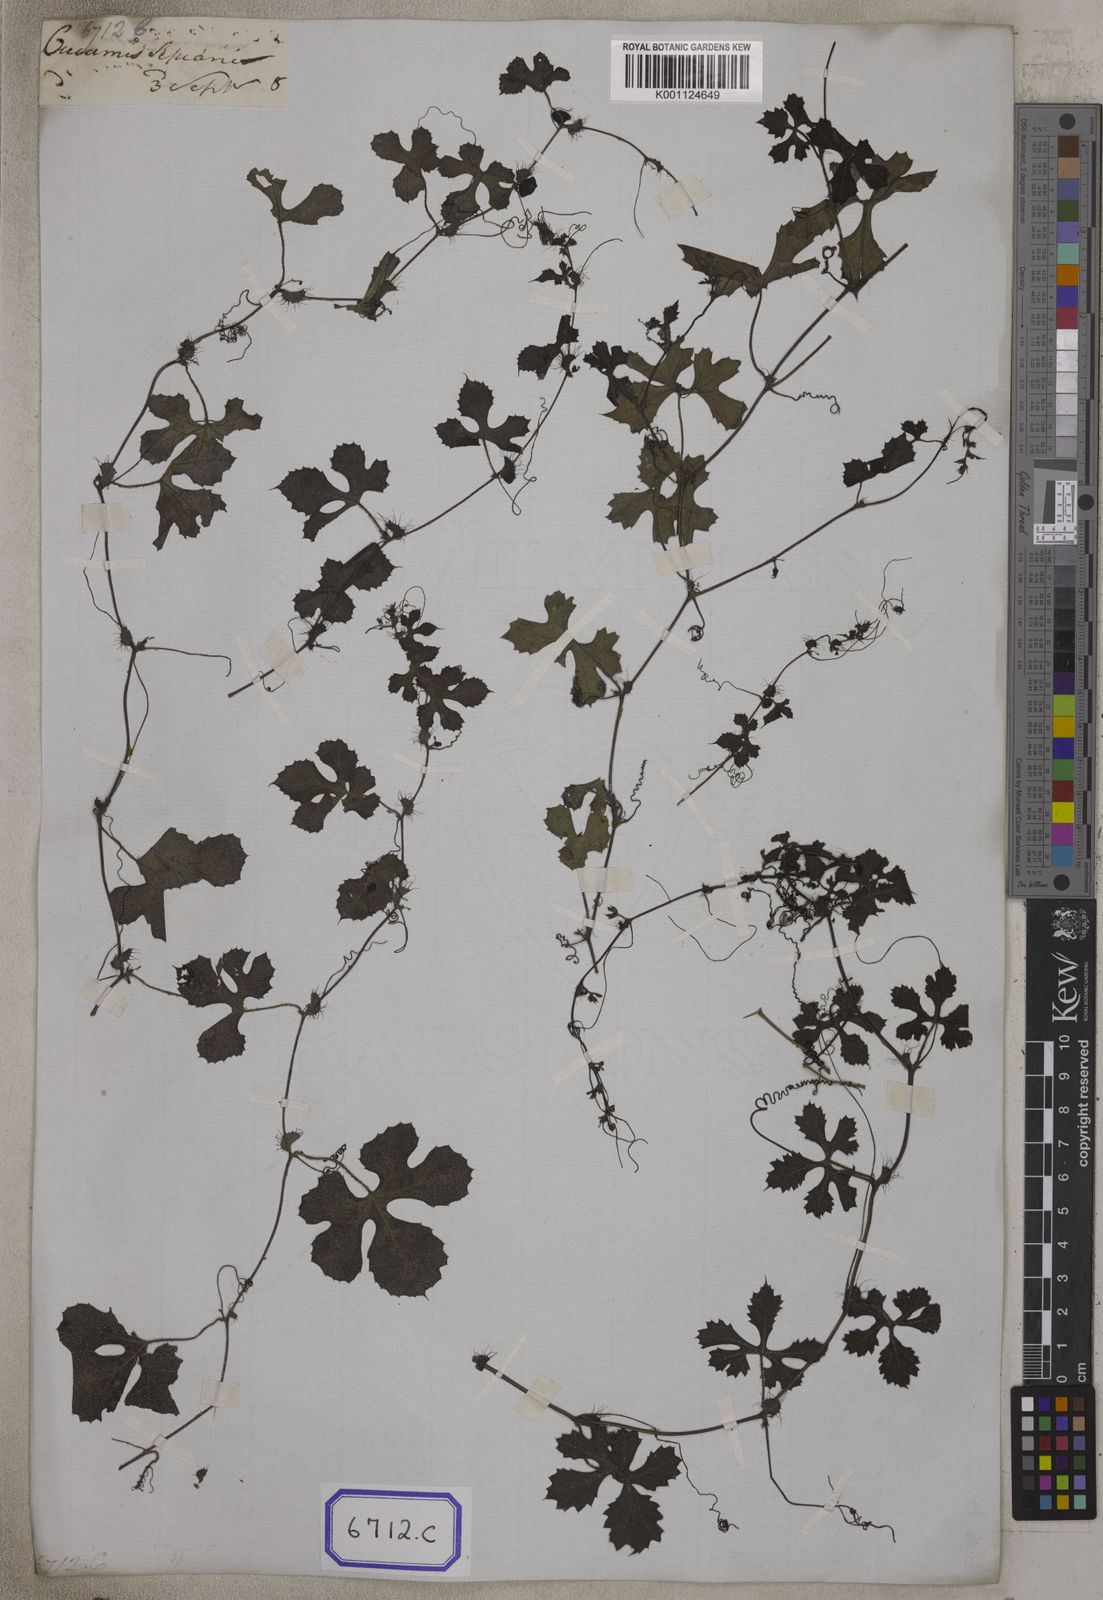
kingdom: Plantae
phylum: Tracheophyta
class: Magnoliopsida
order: Cucurbitales
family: Cucurbitaceae
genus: Blastania
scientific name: Blastania garcinii
